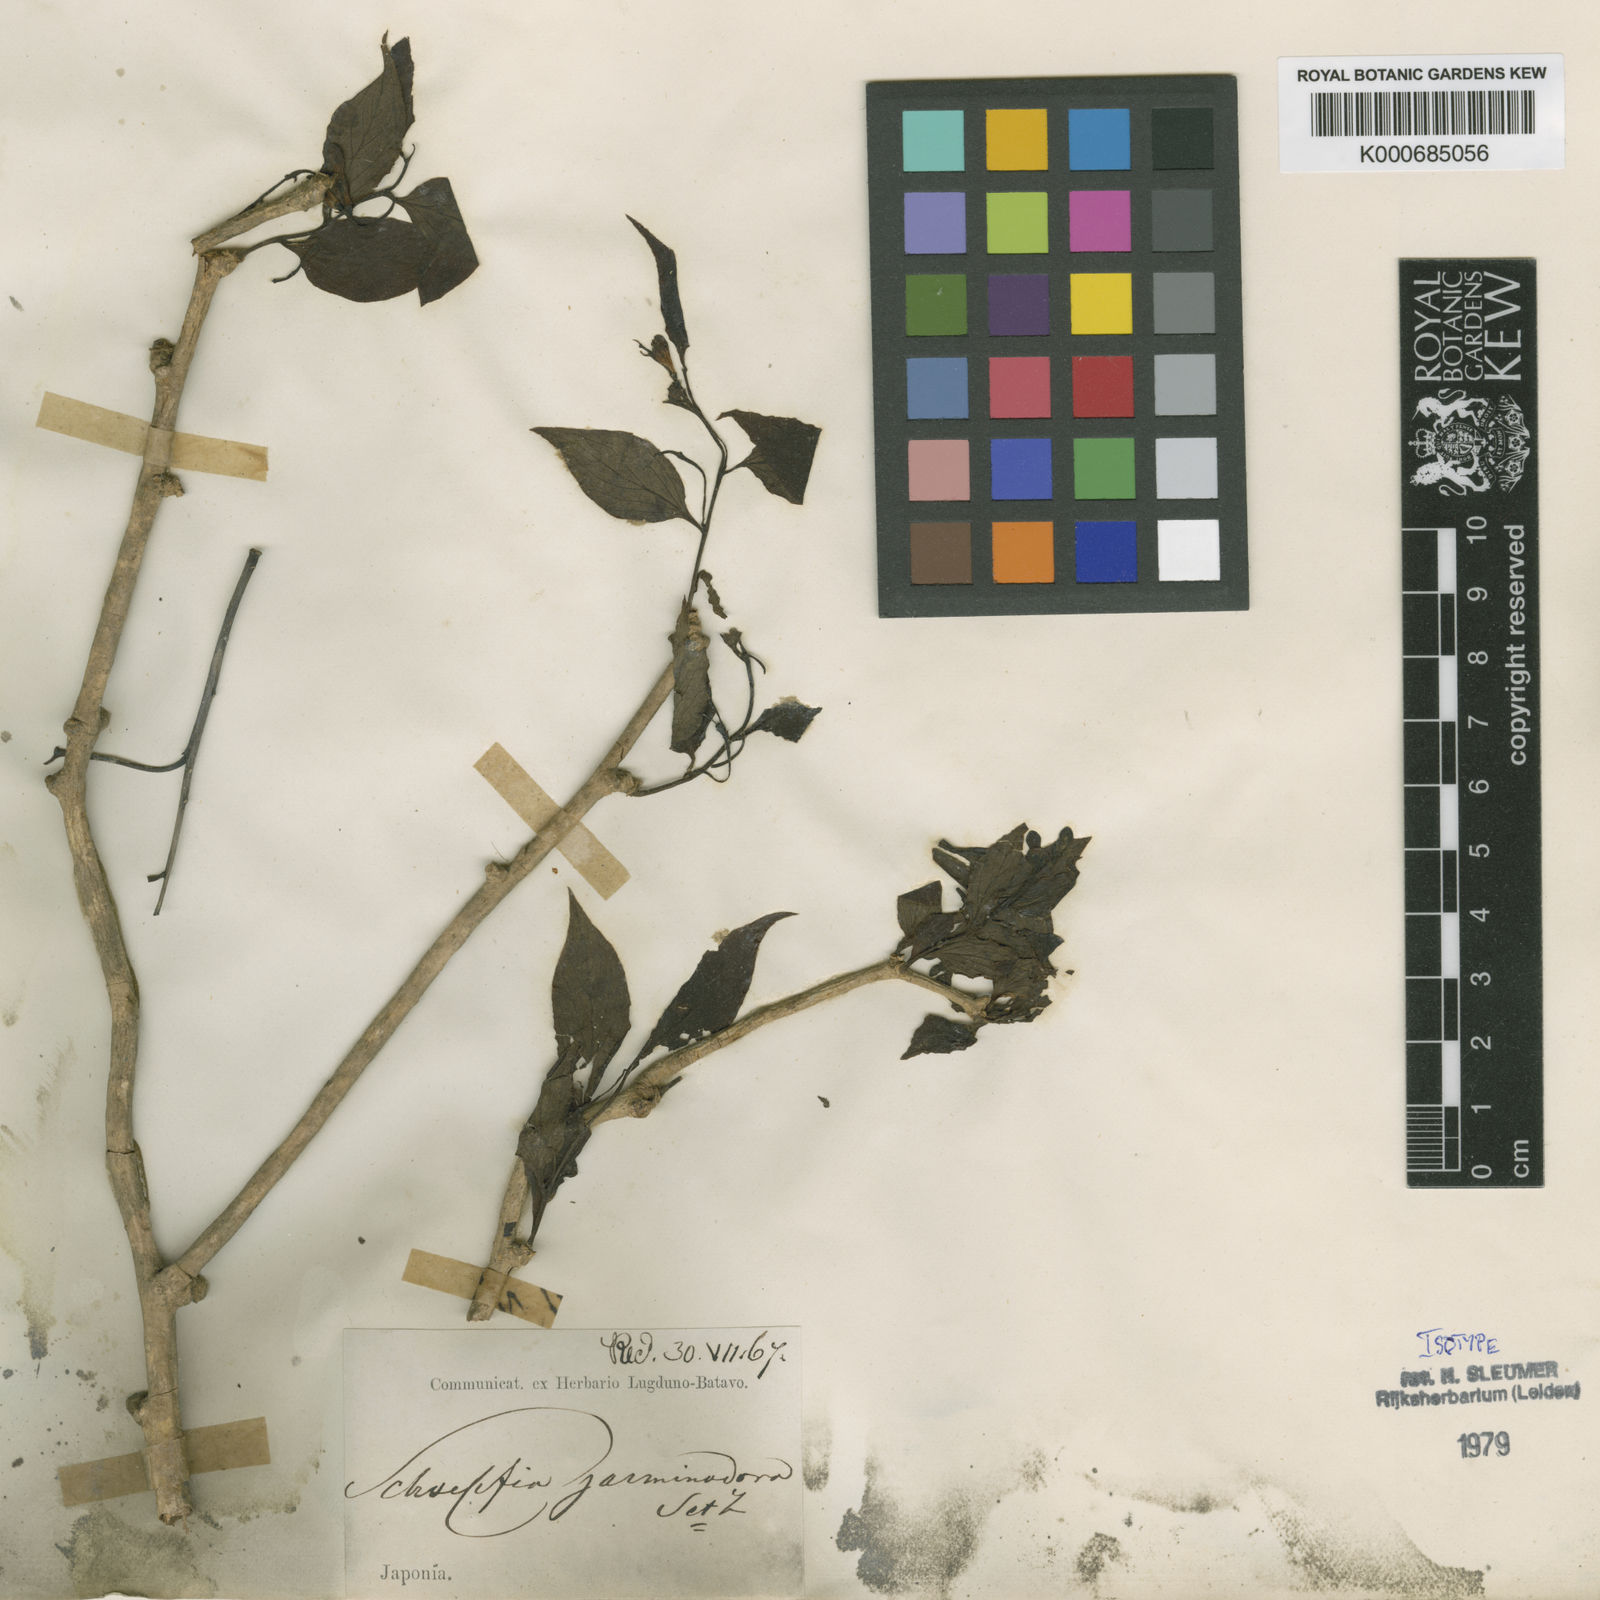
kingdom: Plantae
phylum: Tracheophyta
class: Magnoliopsida
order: Santalales
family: Schoepfiaceae
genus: Schoepfia
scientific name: Schoepfia jasminodora
